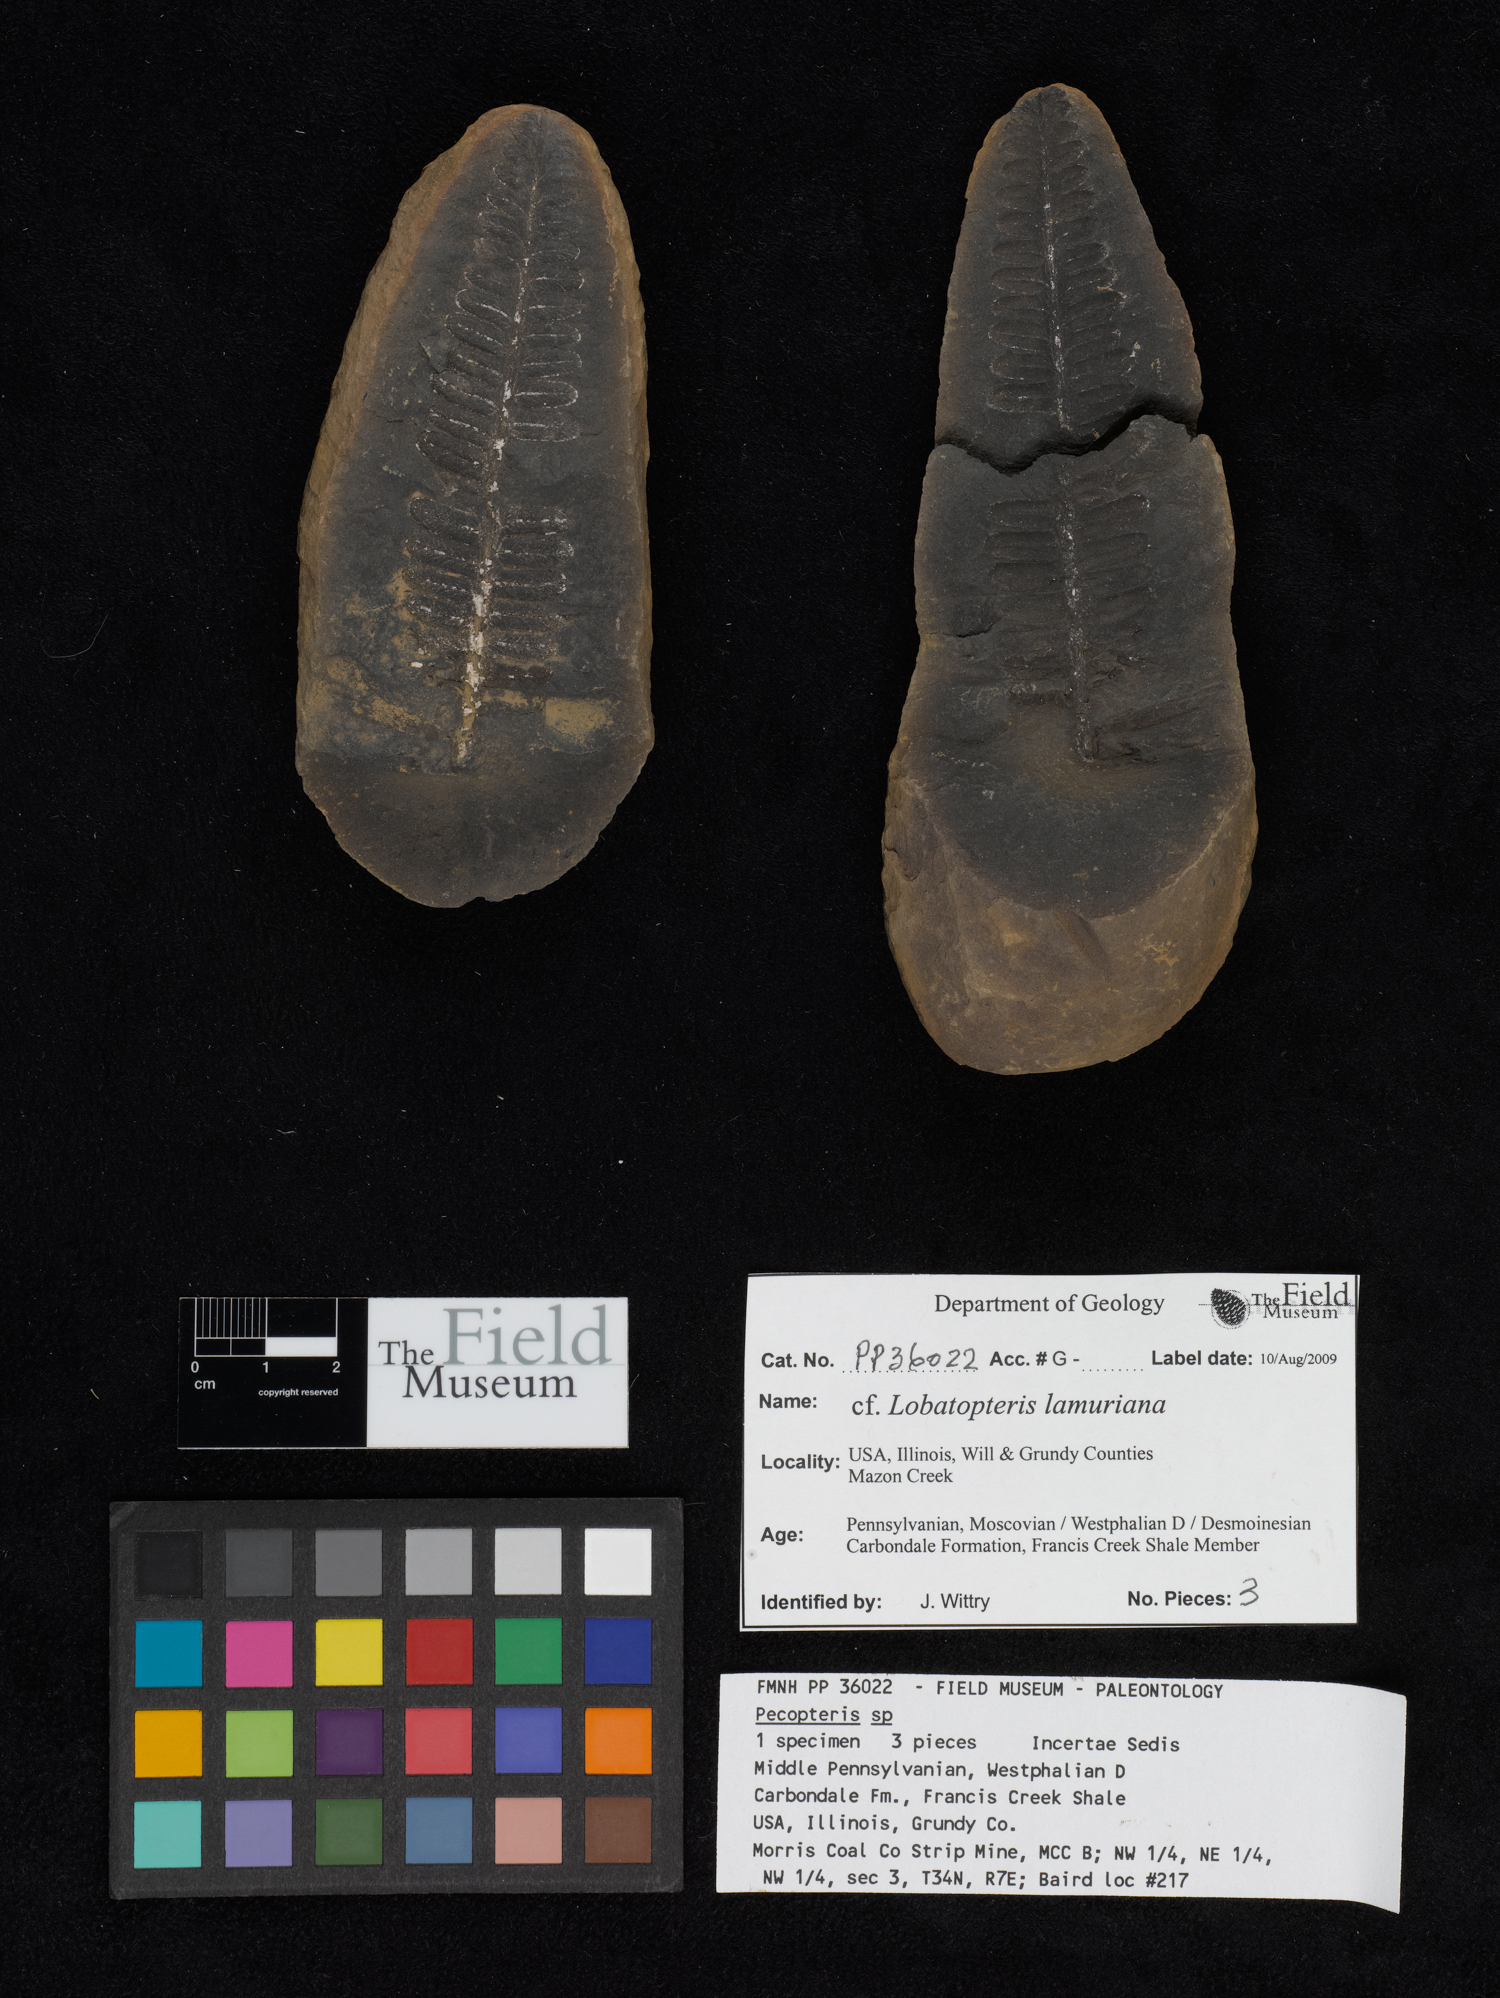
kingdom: Plantae
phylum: Tracheophyta
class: Polypodiopsida
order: Marattiales
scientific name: Marattiales
